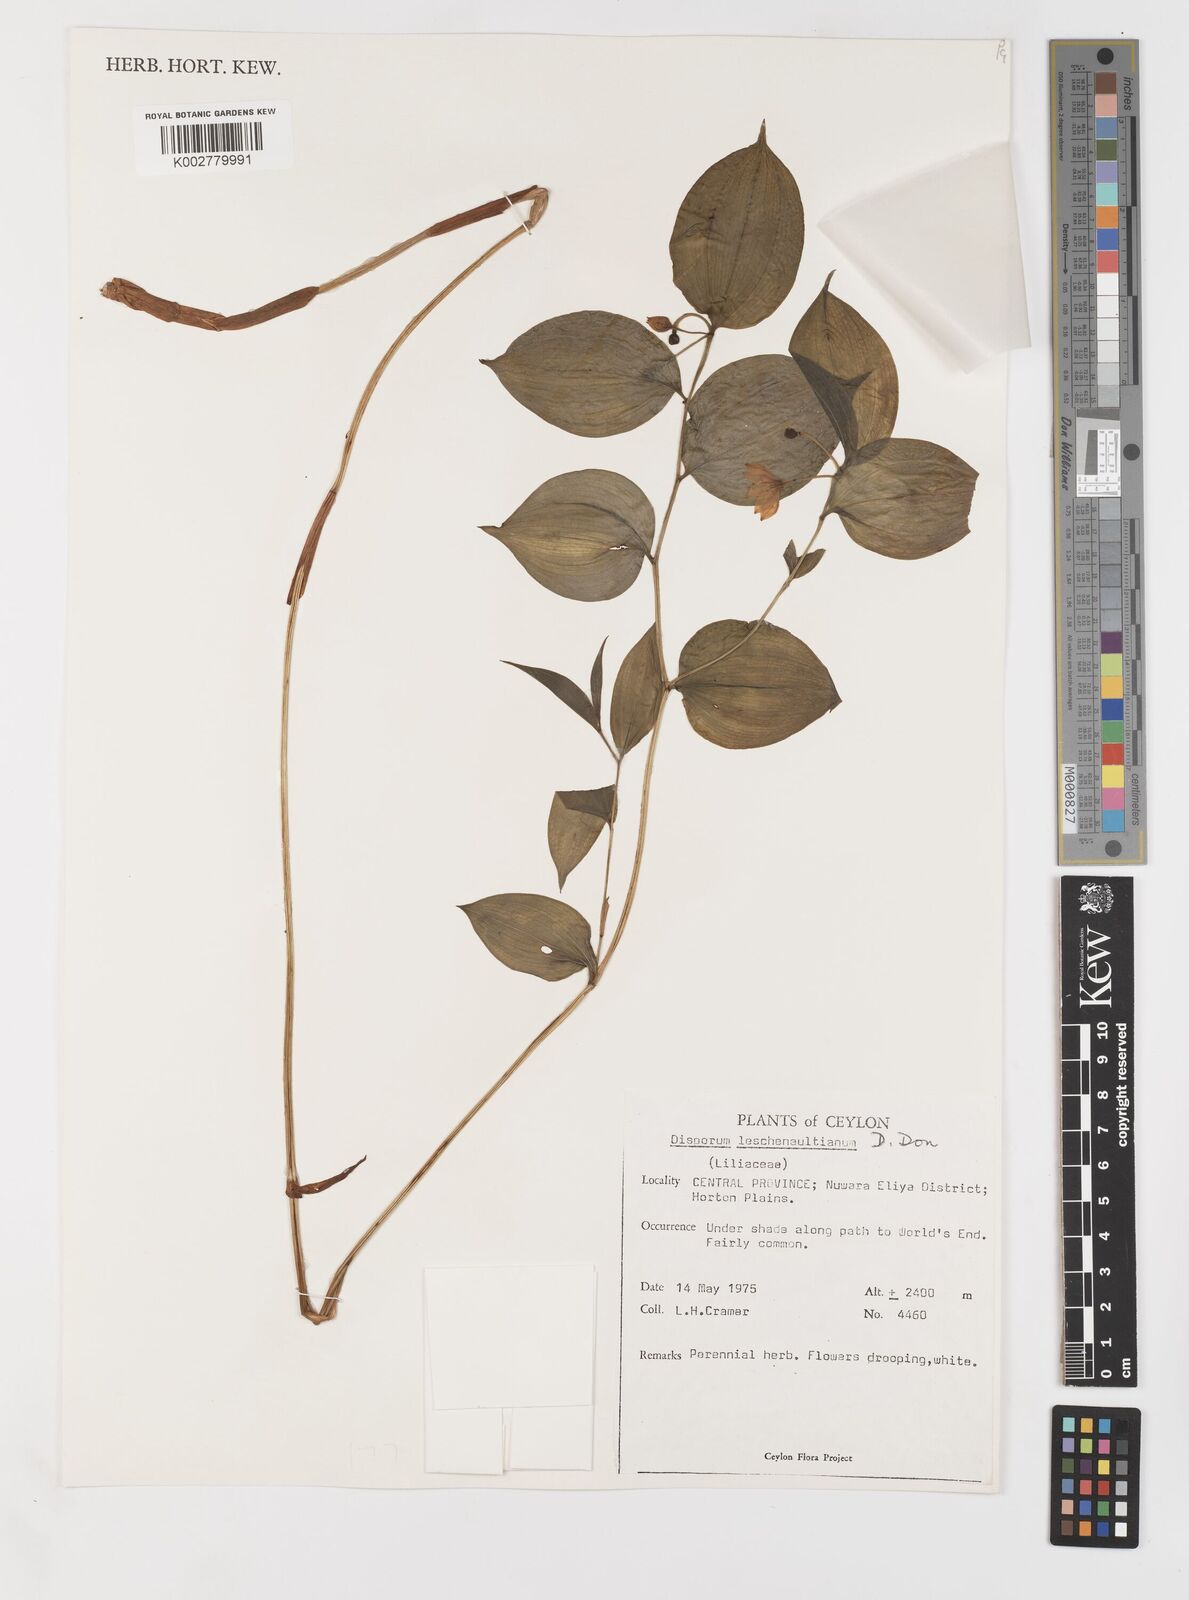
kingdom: Plantae
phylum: Tracheophyta
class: Liliopsida
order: Liliales
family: Colchicaceae
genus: Disporum
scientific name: Disporum cantoniense
